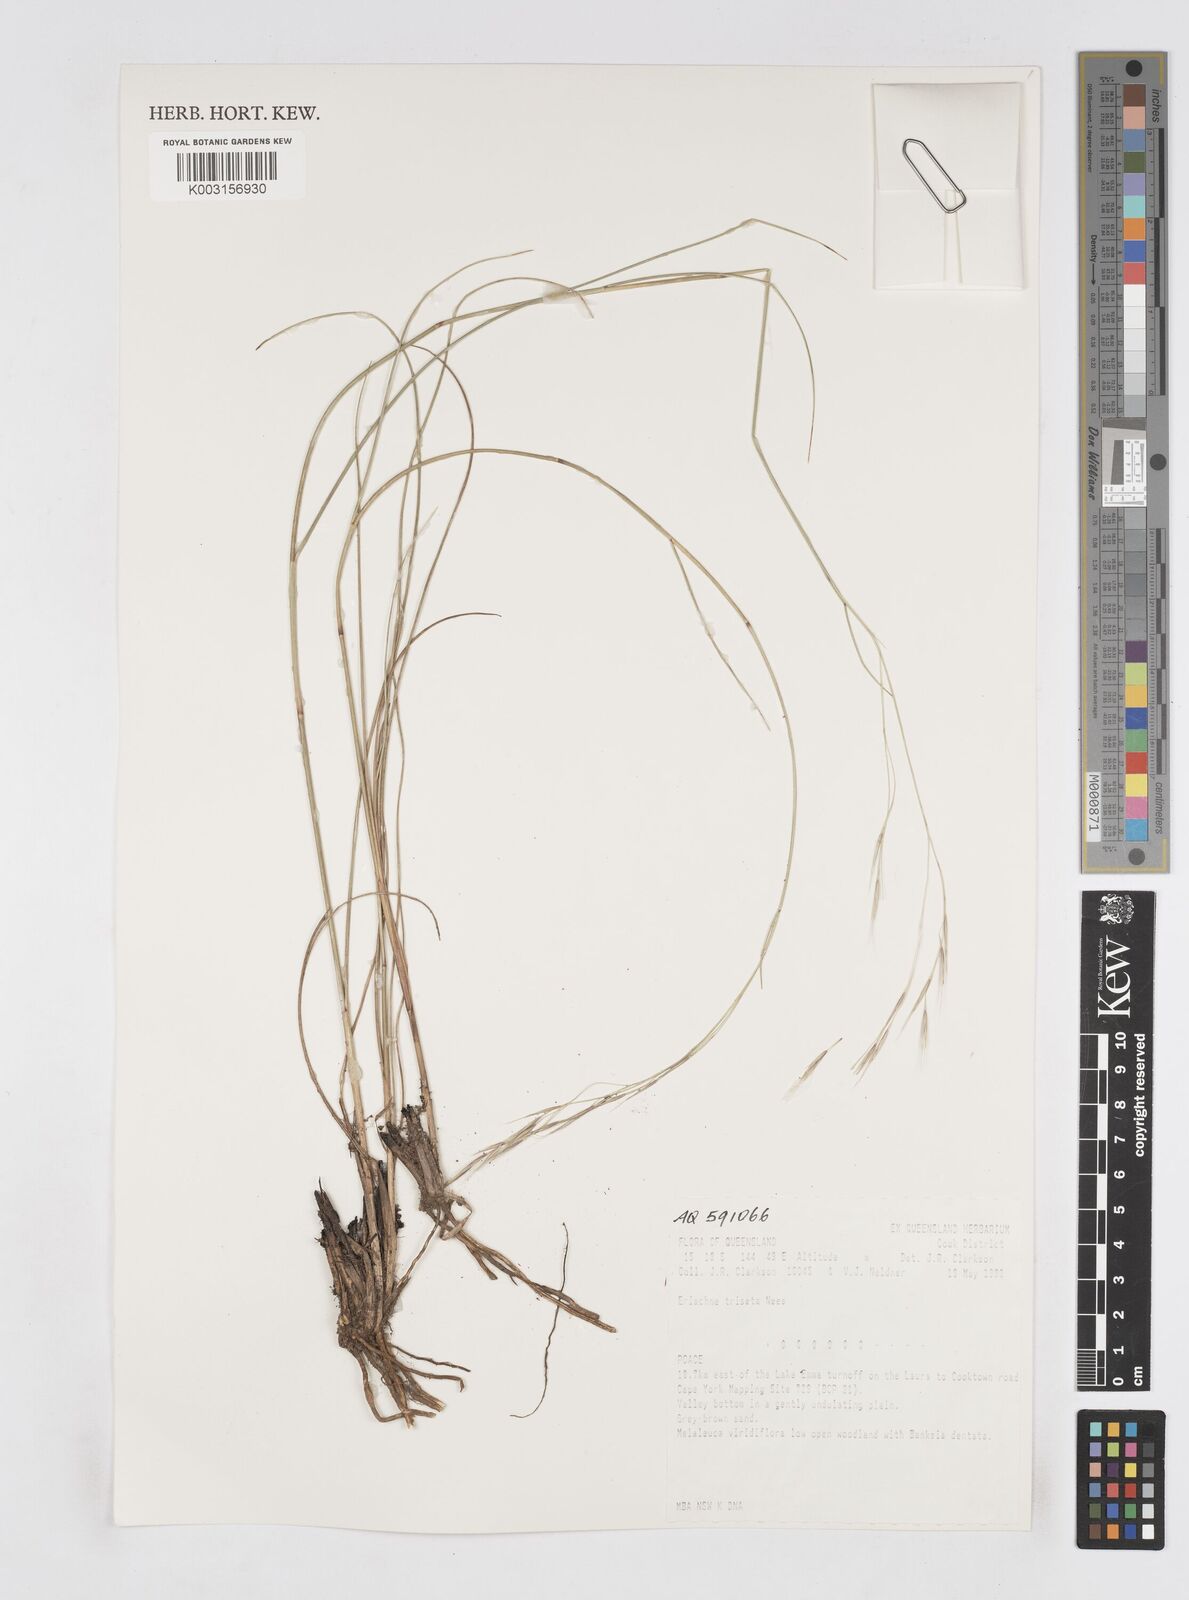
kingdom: Plantae
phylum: Tracheophyta
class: Liliopsida
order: Poales
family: Poaceae
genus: Eriachne
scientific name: Eriachne triseta
